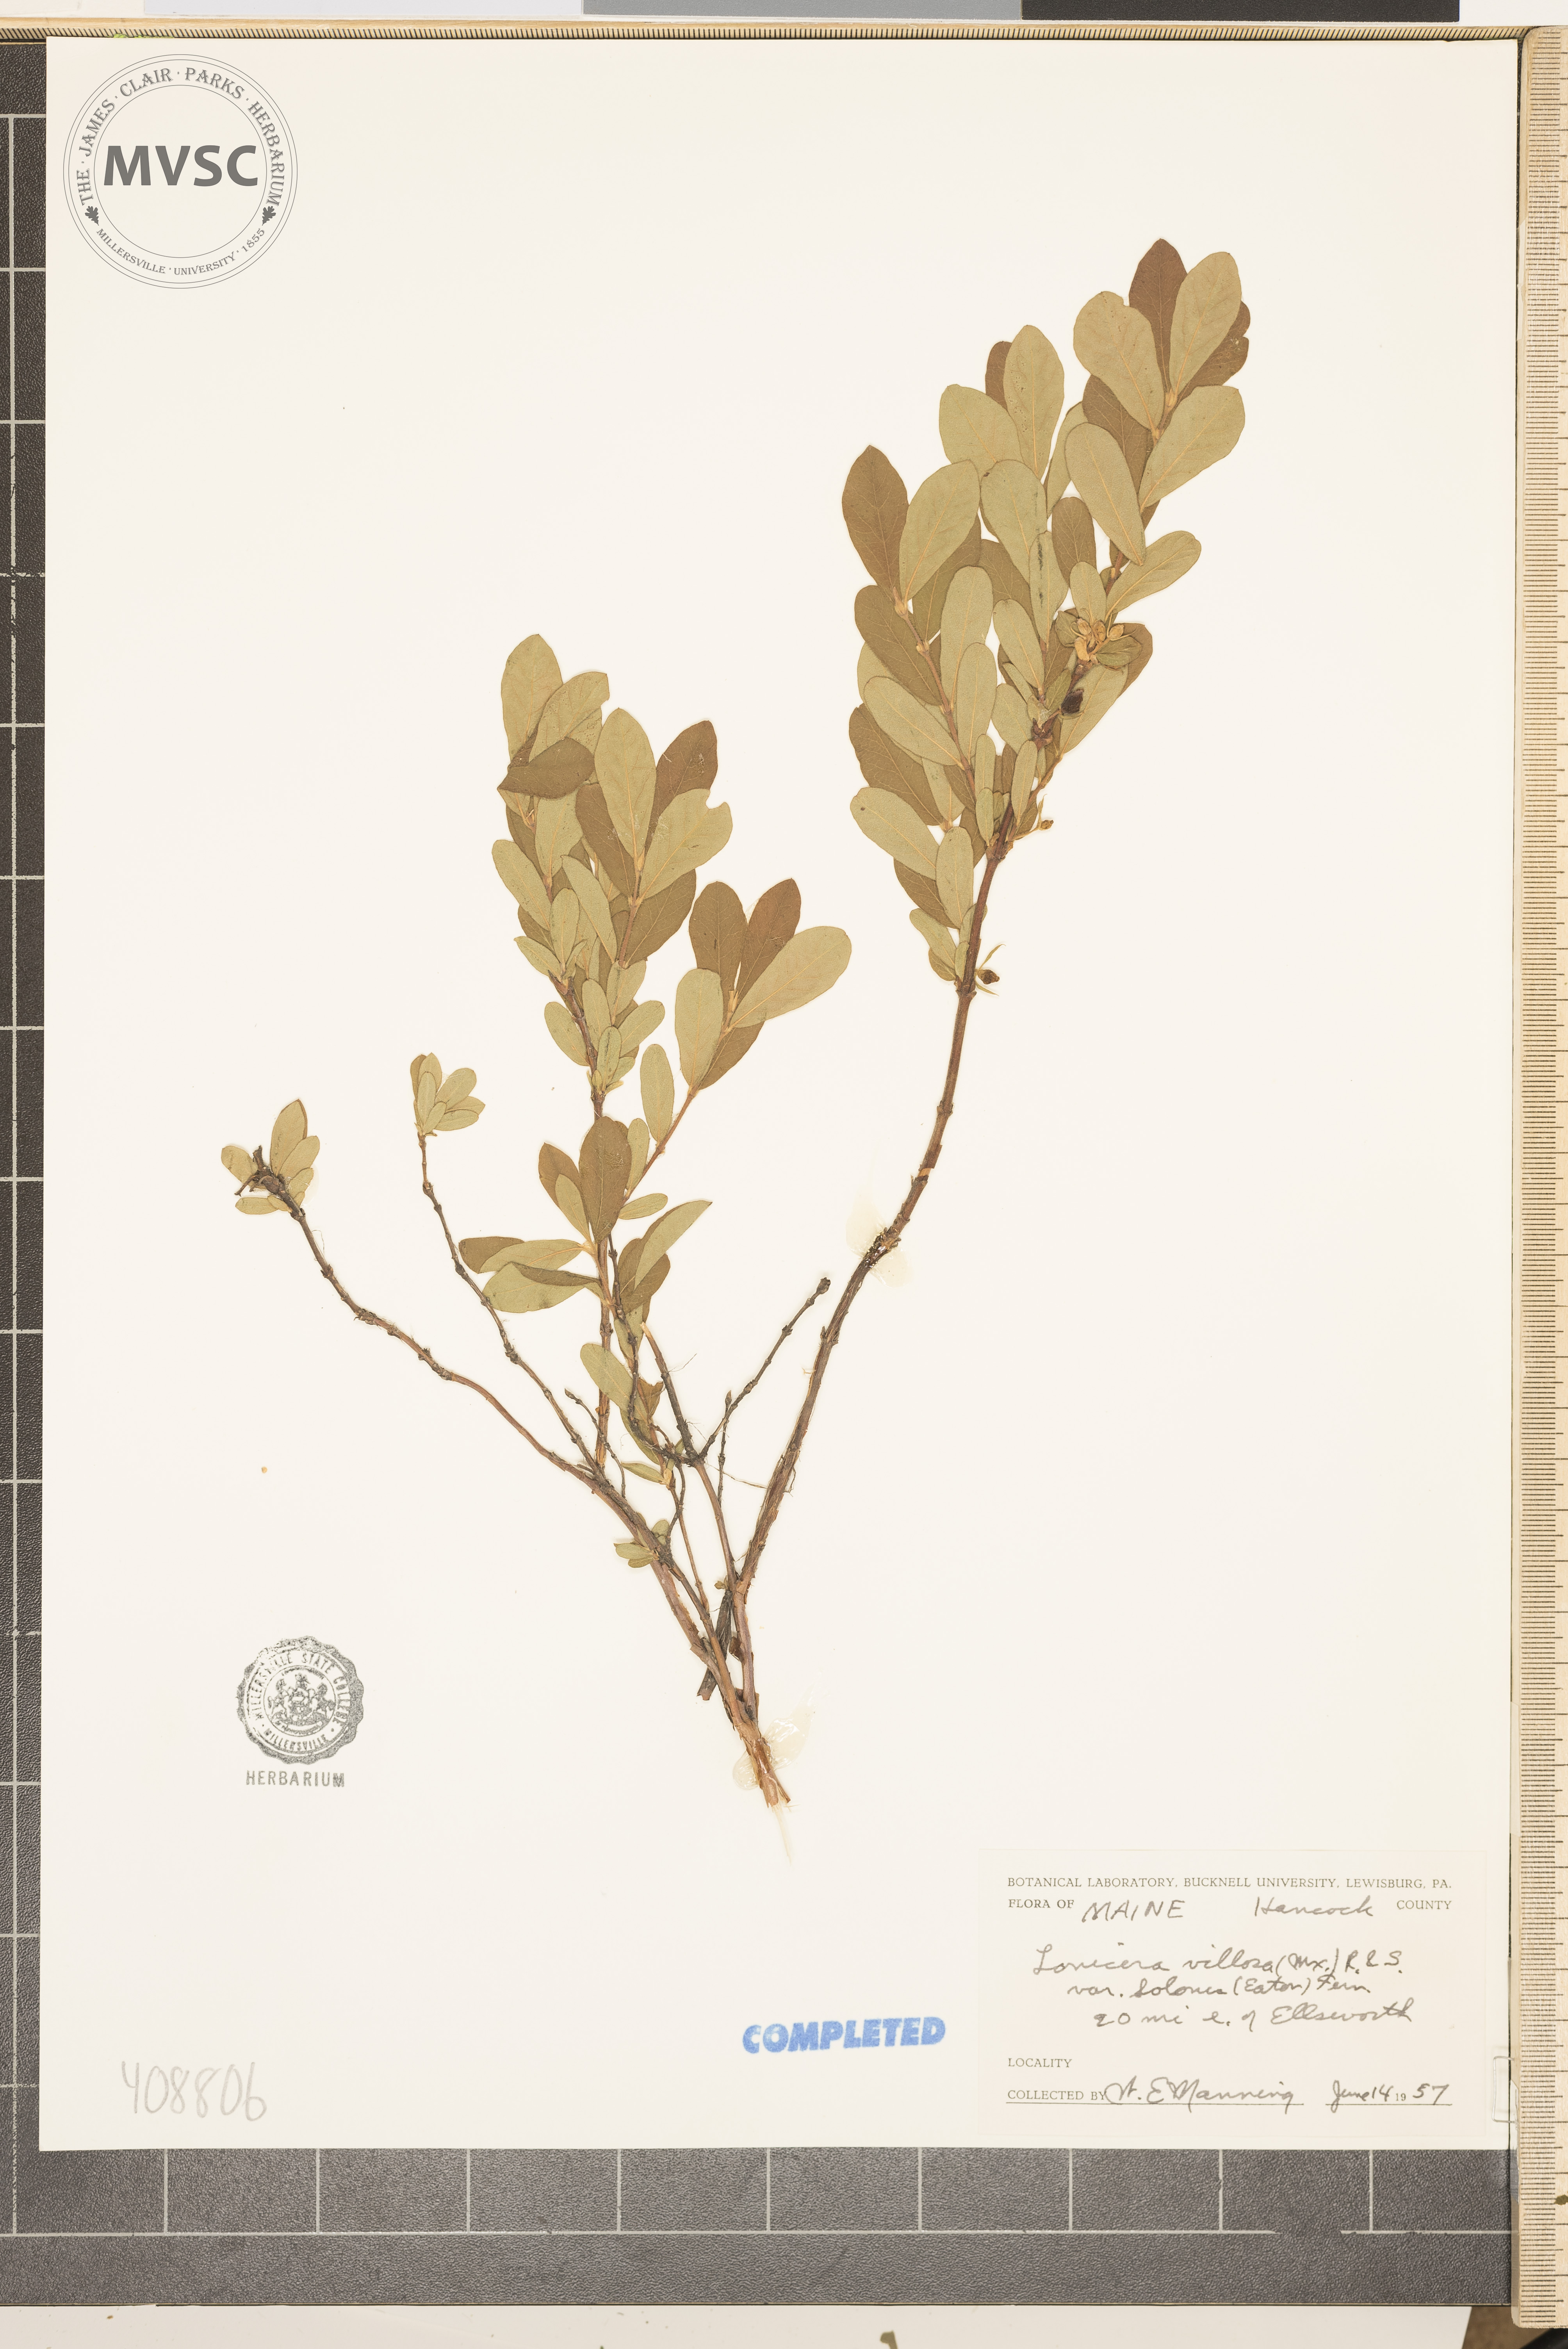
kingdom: Plantae
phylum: Tracheophyta
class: Magnoliopsida
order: Dipsacales
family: Caprifoliaceae
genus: Lonicera
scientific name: Lonicera villosa
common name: Mountain fly-honeysuckle
